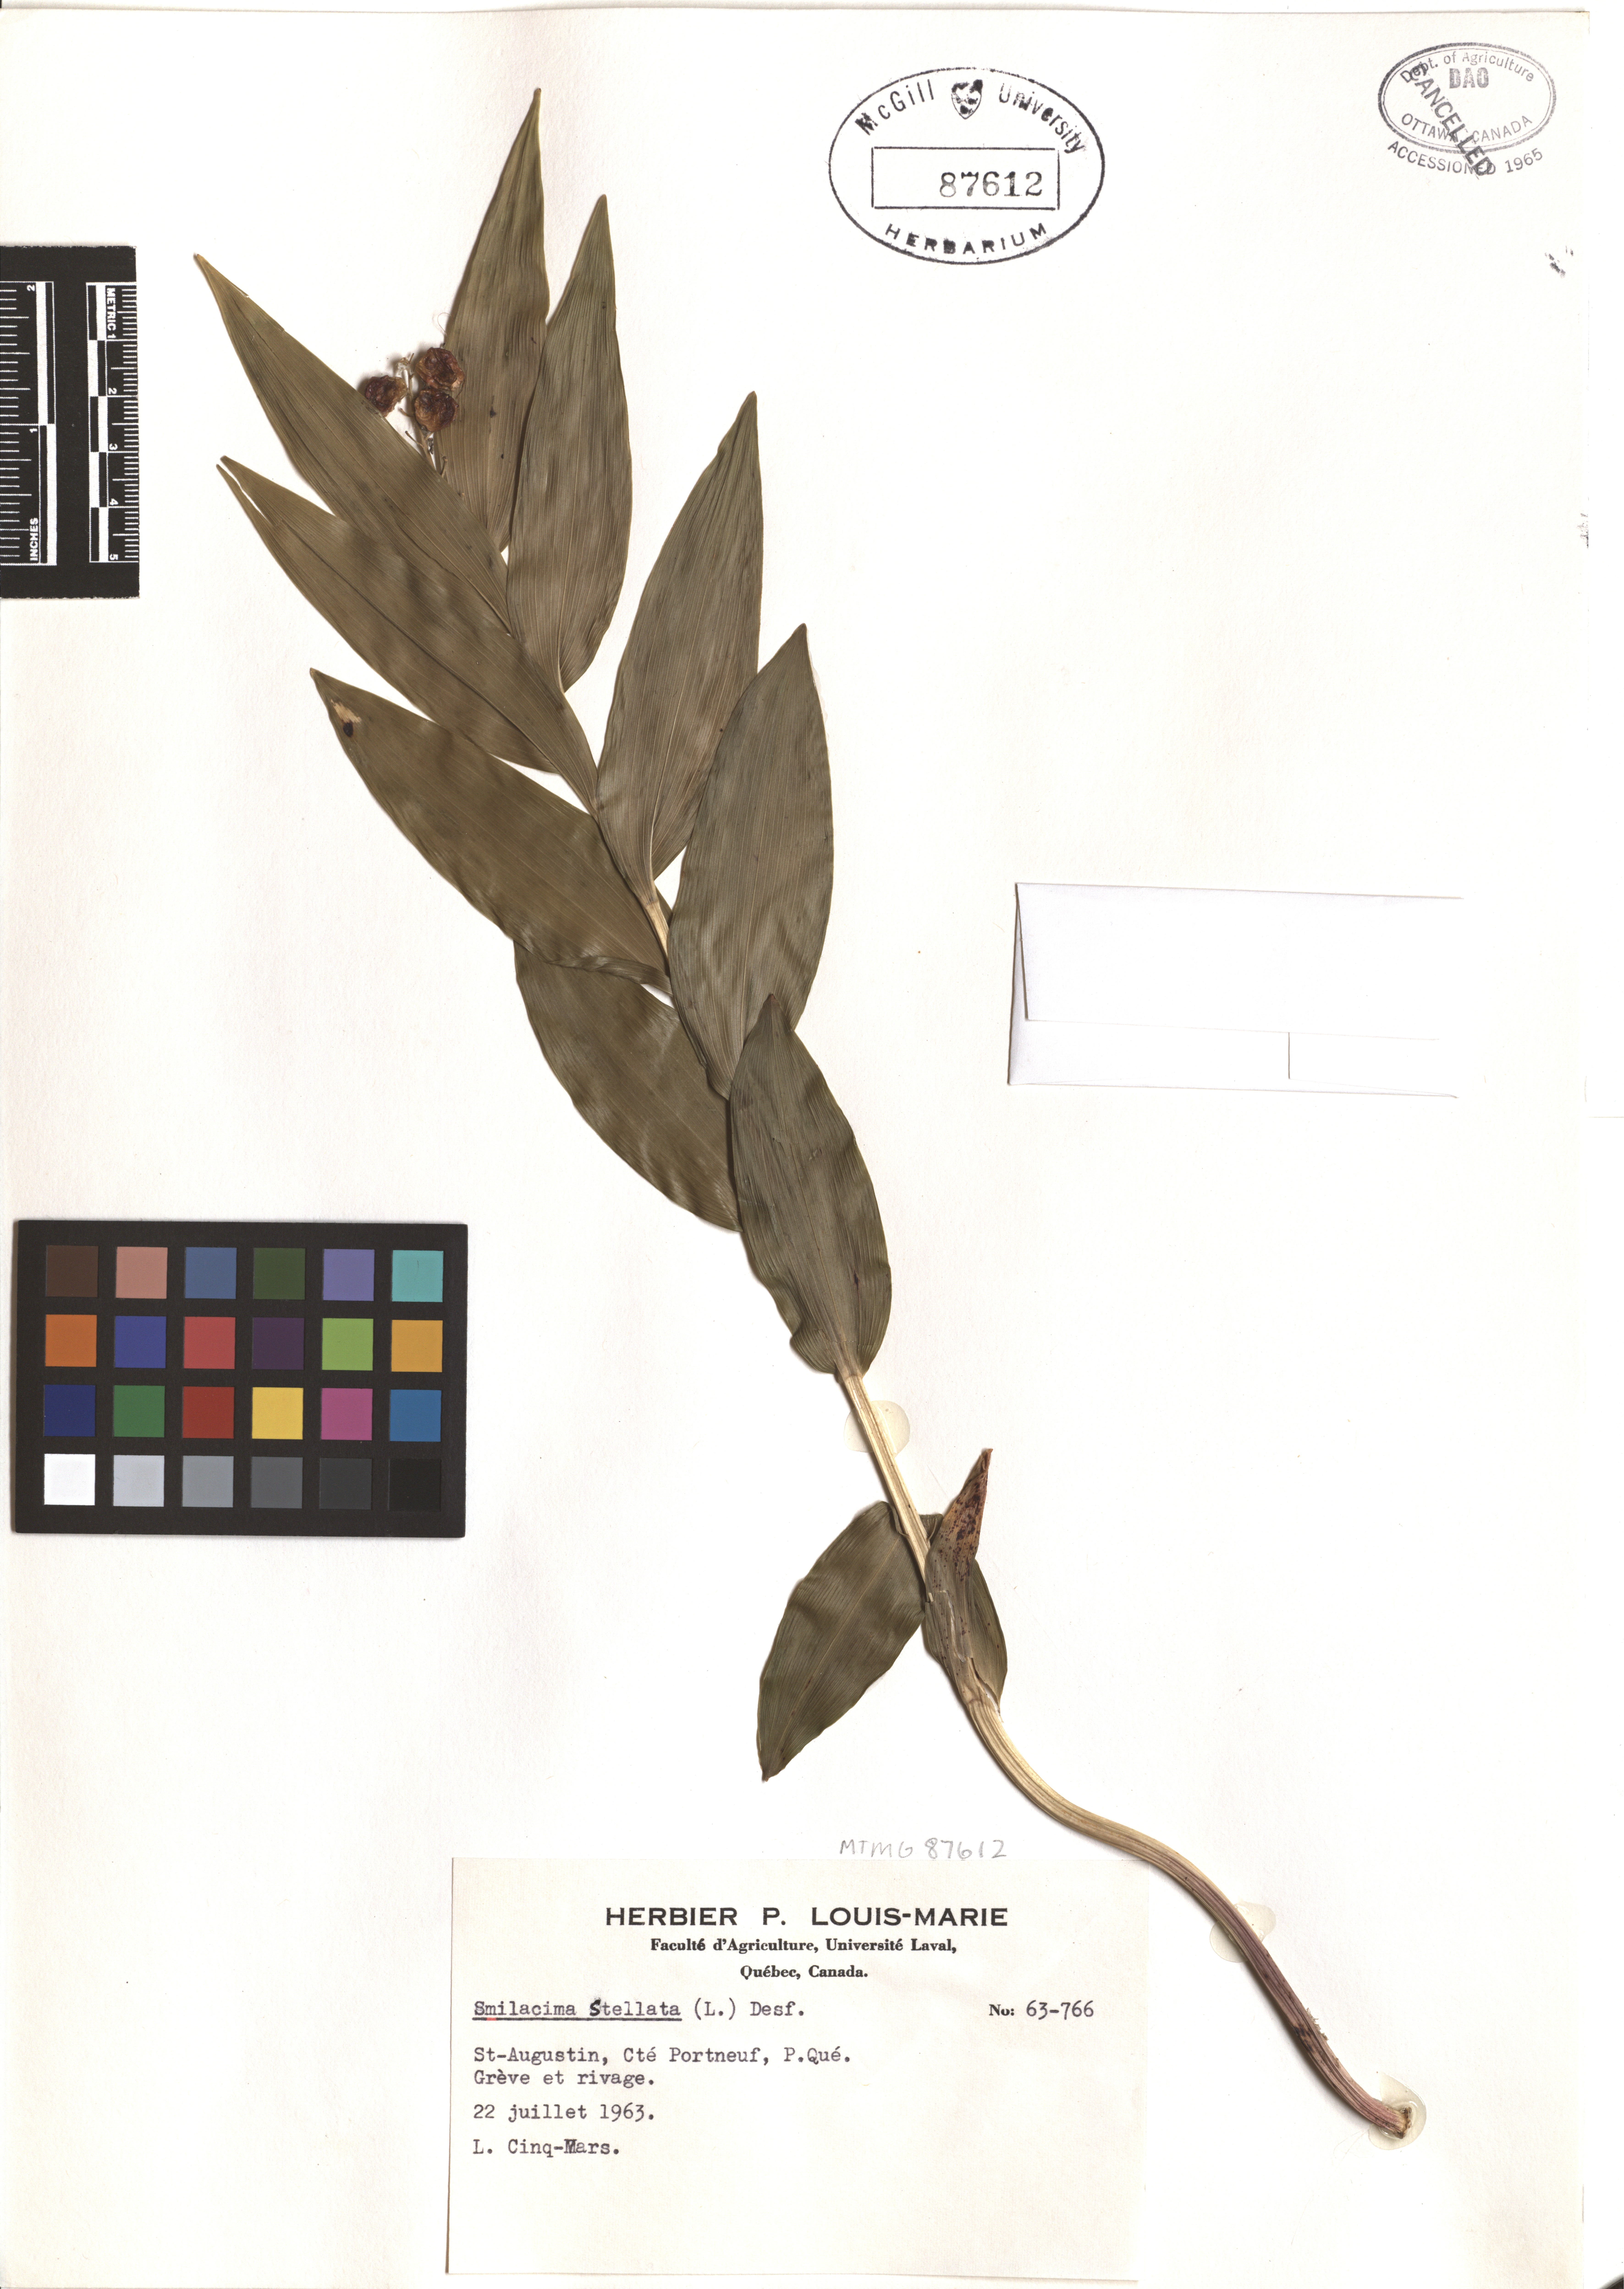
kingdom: Plantae
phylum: Tracheophyta
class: Liliopsida
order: Asparagales
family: Asparagaceae
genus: Maianthemum
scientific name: Maianthemum stellatum
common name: Little false solomon's seal
